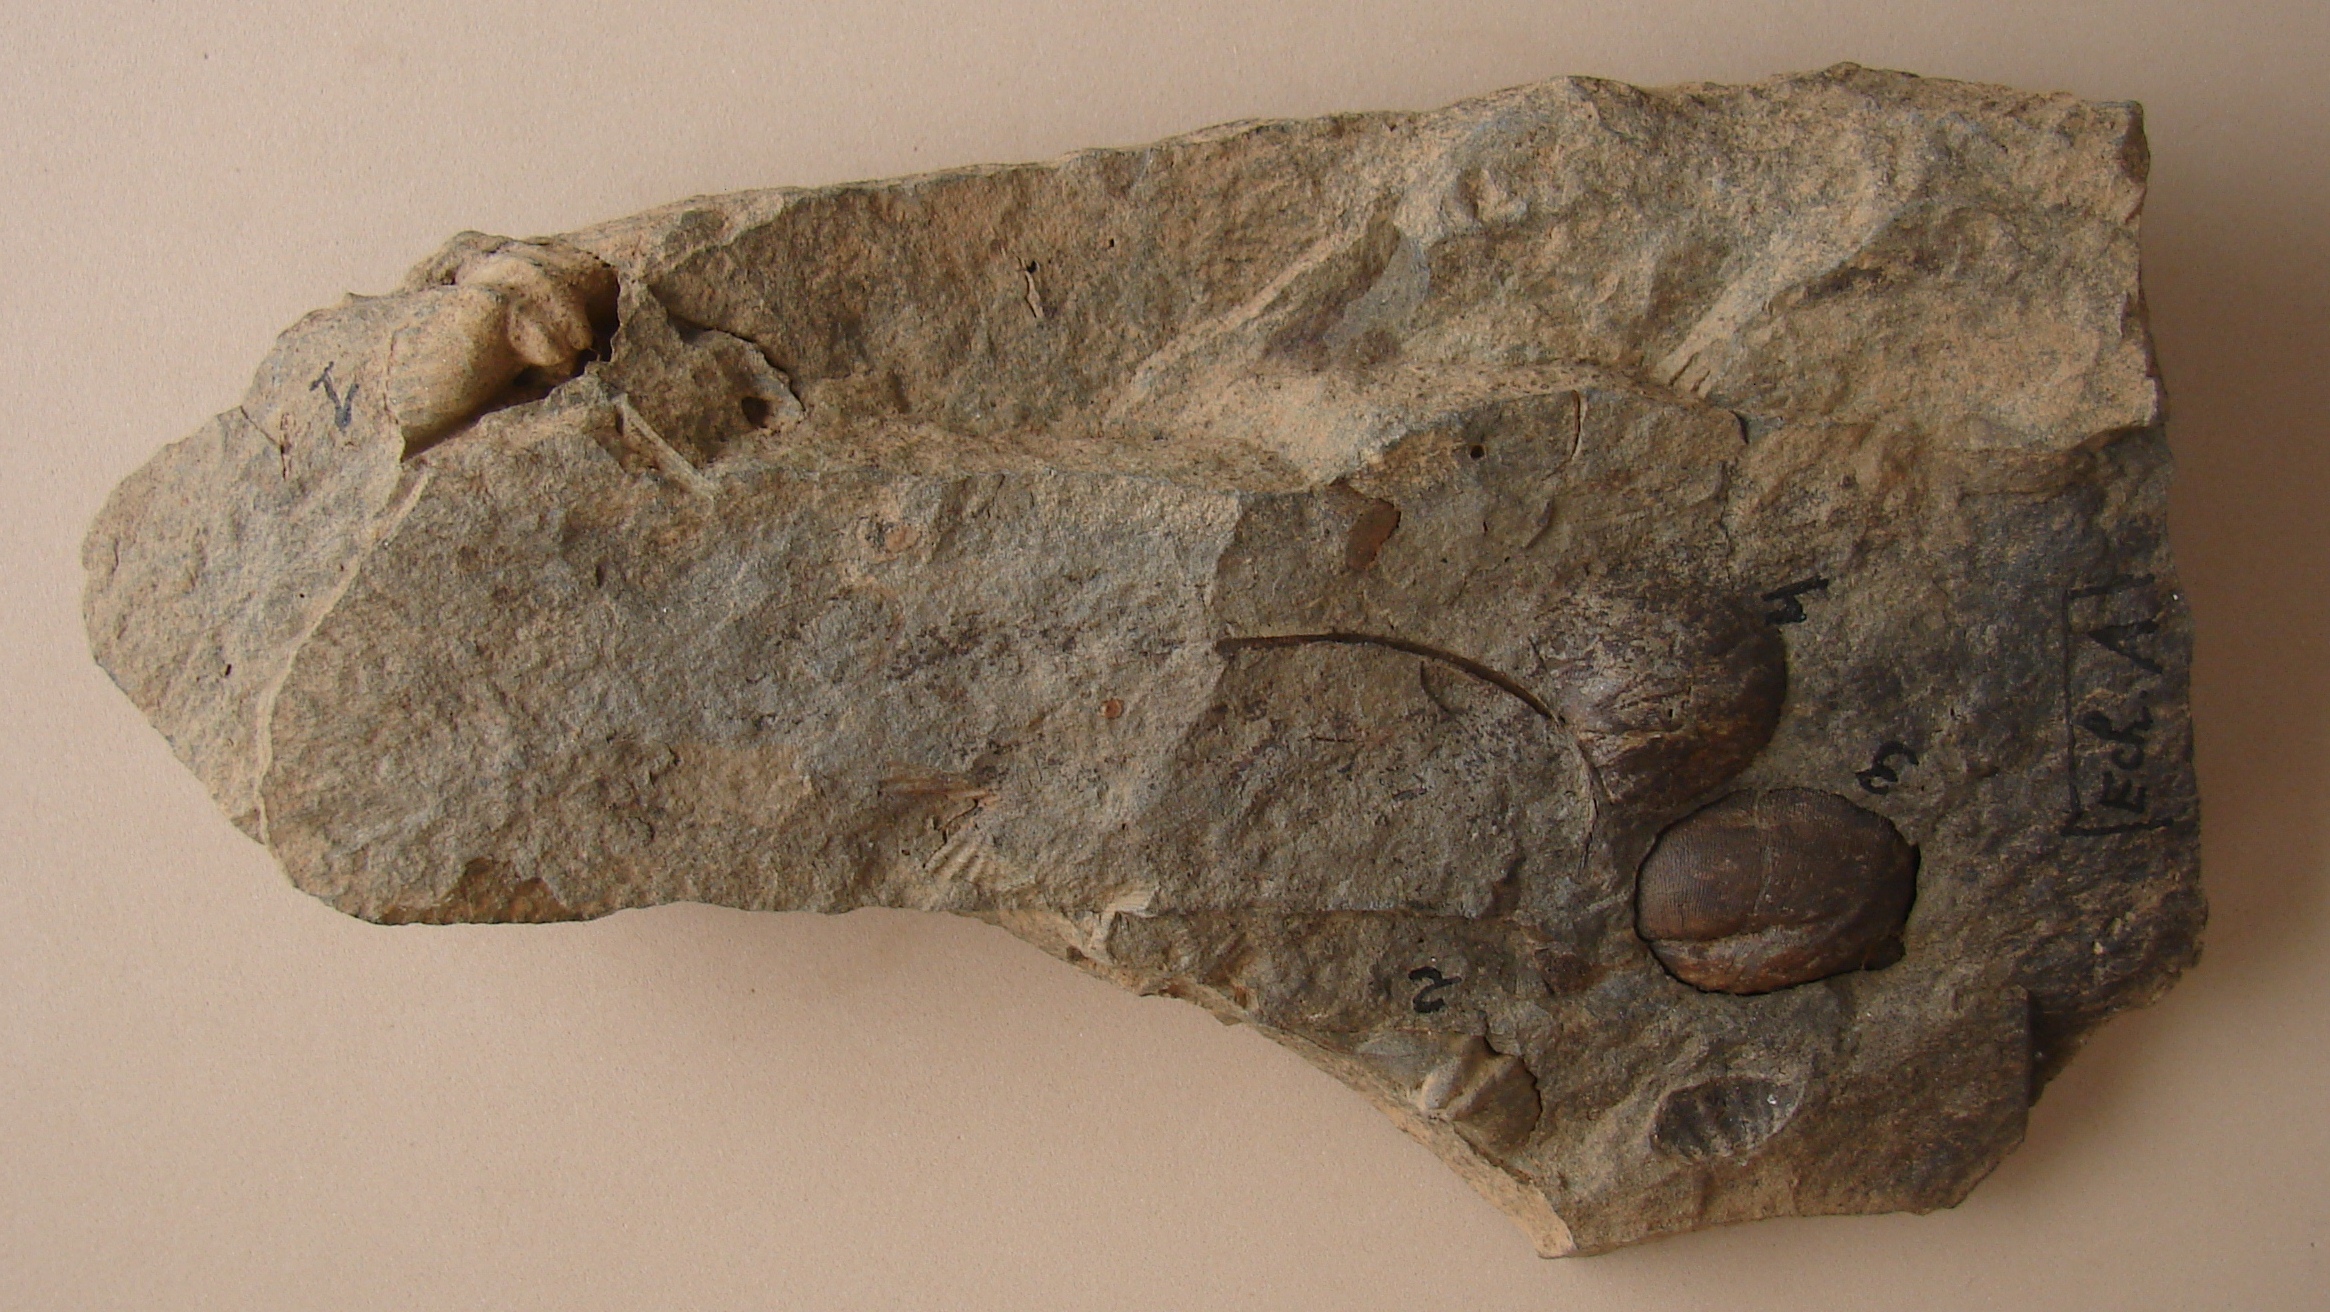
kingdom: Animalia
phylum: Brachiopoda
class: Rhynchonellata
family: Hysterolitidae
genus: Arduspirifer
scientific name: Arduspirifer Spirifer arduennensis
